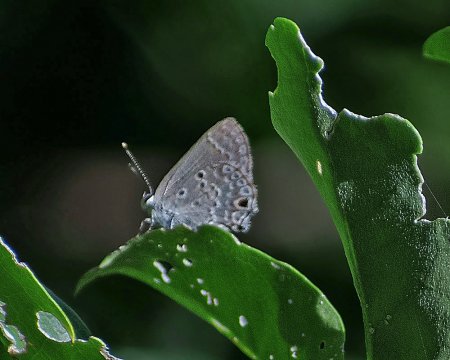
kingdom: Animalia
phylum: Arthropoda
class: Insecta
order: Lepidoptera
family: Lycaenidae
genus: Strymon
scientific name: Strymon bubastus
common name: Disjunct Scrub-Hairstreak
